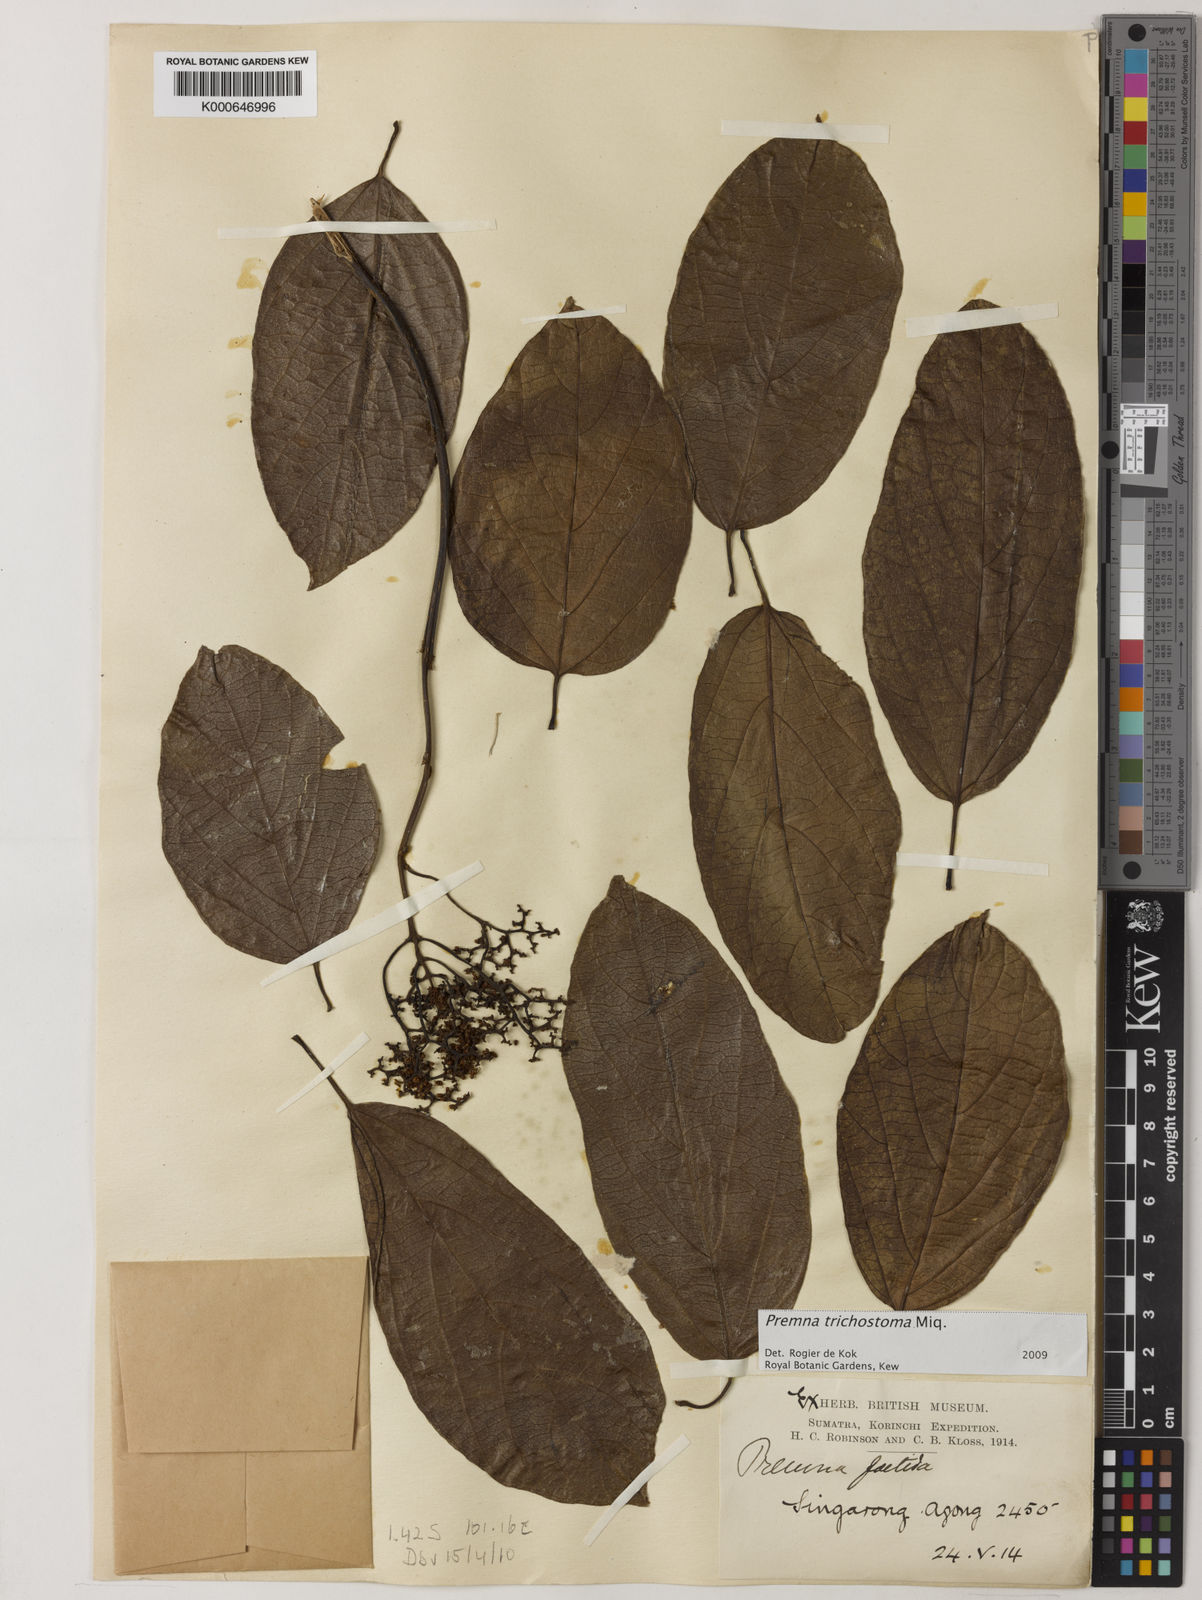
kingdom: Plantae
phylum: Tracheophyta
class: Magnoliopsida
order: Lamiales
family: Lamiaceae
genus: Premna
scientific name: Premna trichostoma
